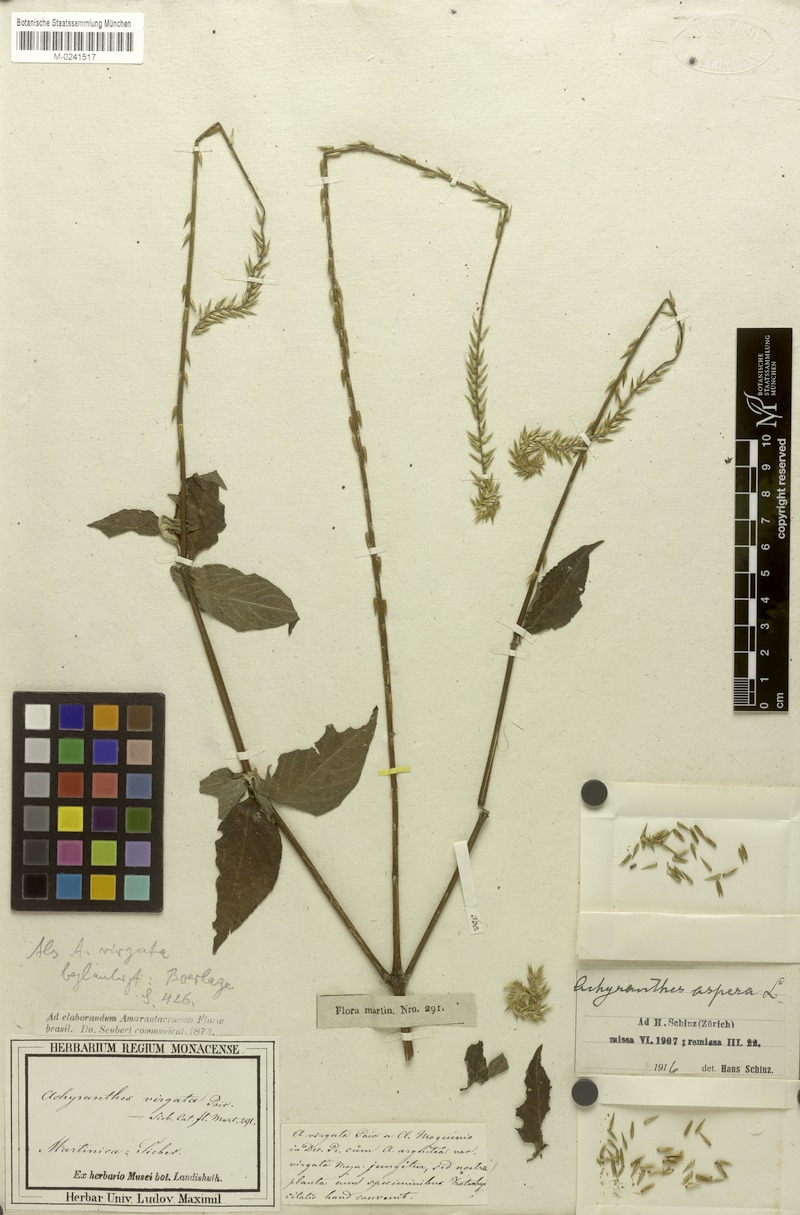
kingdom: Plantae
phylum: Tracheophyta
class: Magnoliopsida
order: Caryophyllales
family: Amaranthaceae
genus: Achyranthes
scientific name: Achyranthes aspera
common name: Devil's horsewhip
